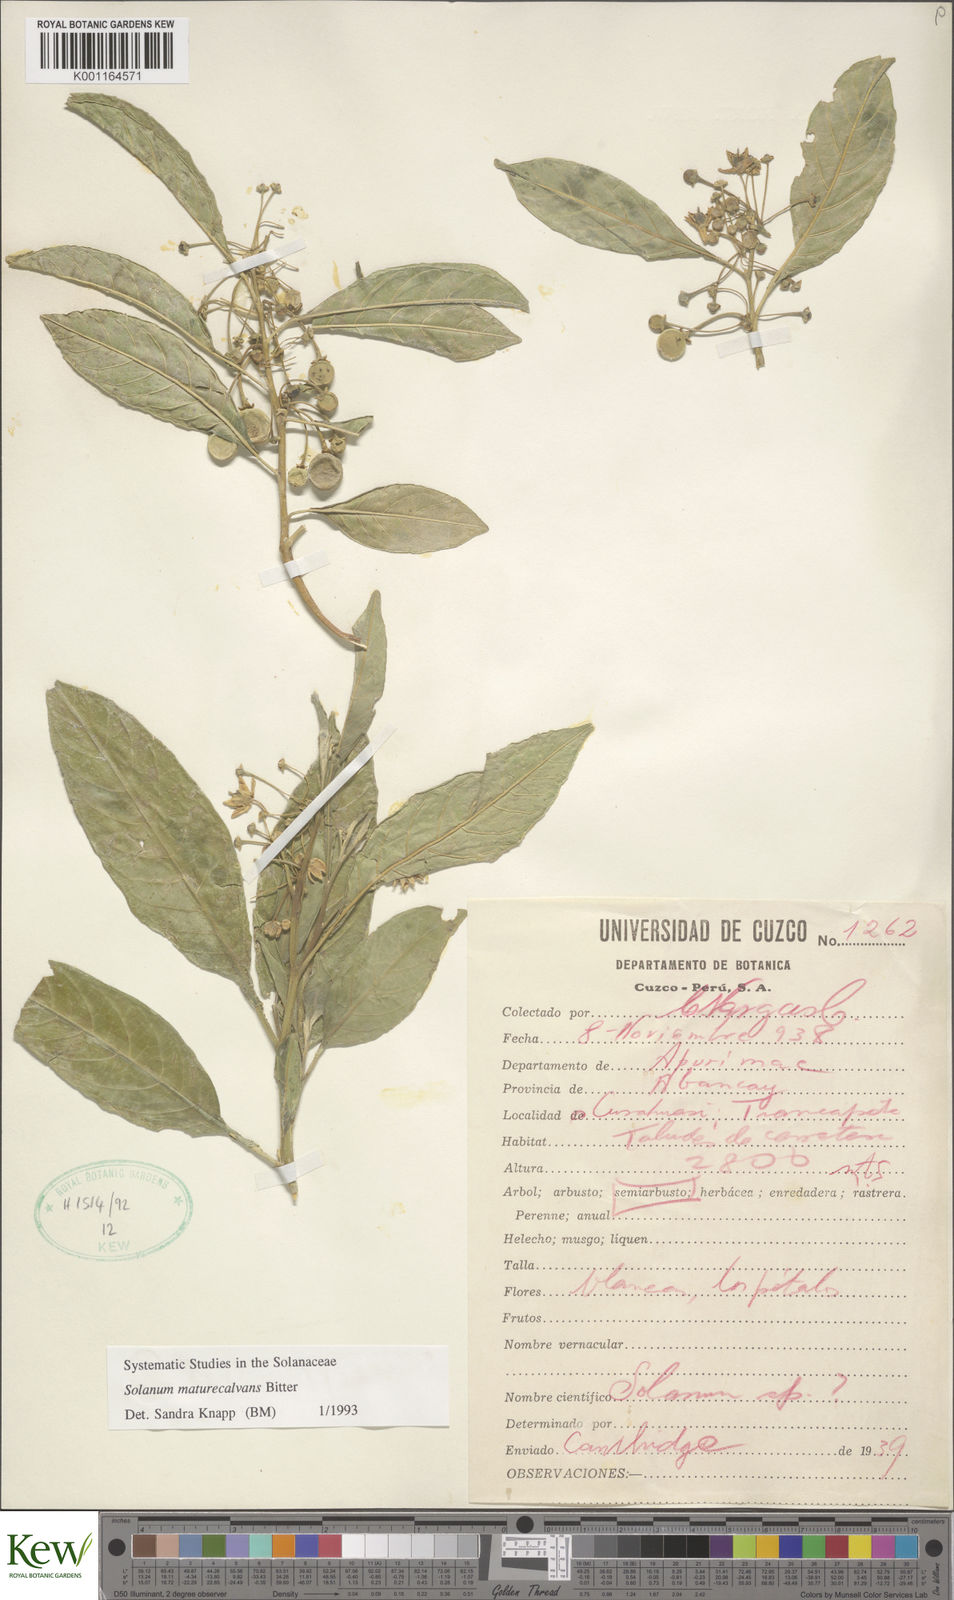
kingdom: Plantae
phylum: Tracheophyta
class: Magnoliopsida
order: Solanales
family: Solanaceae
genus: Solanum
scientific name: Solanum maturecalvans
